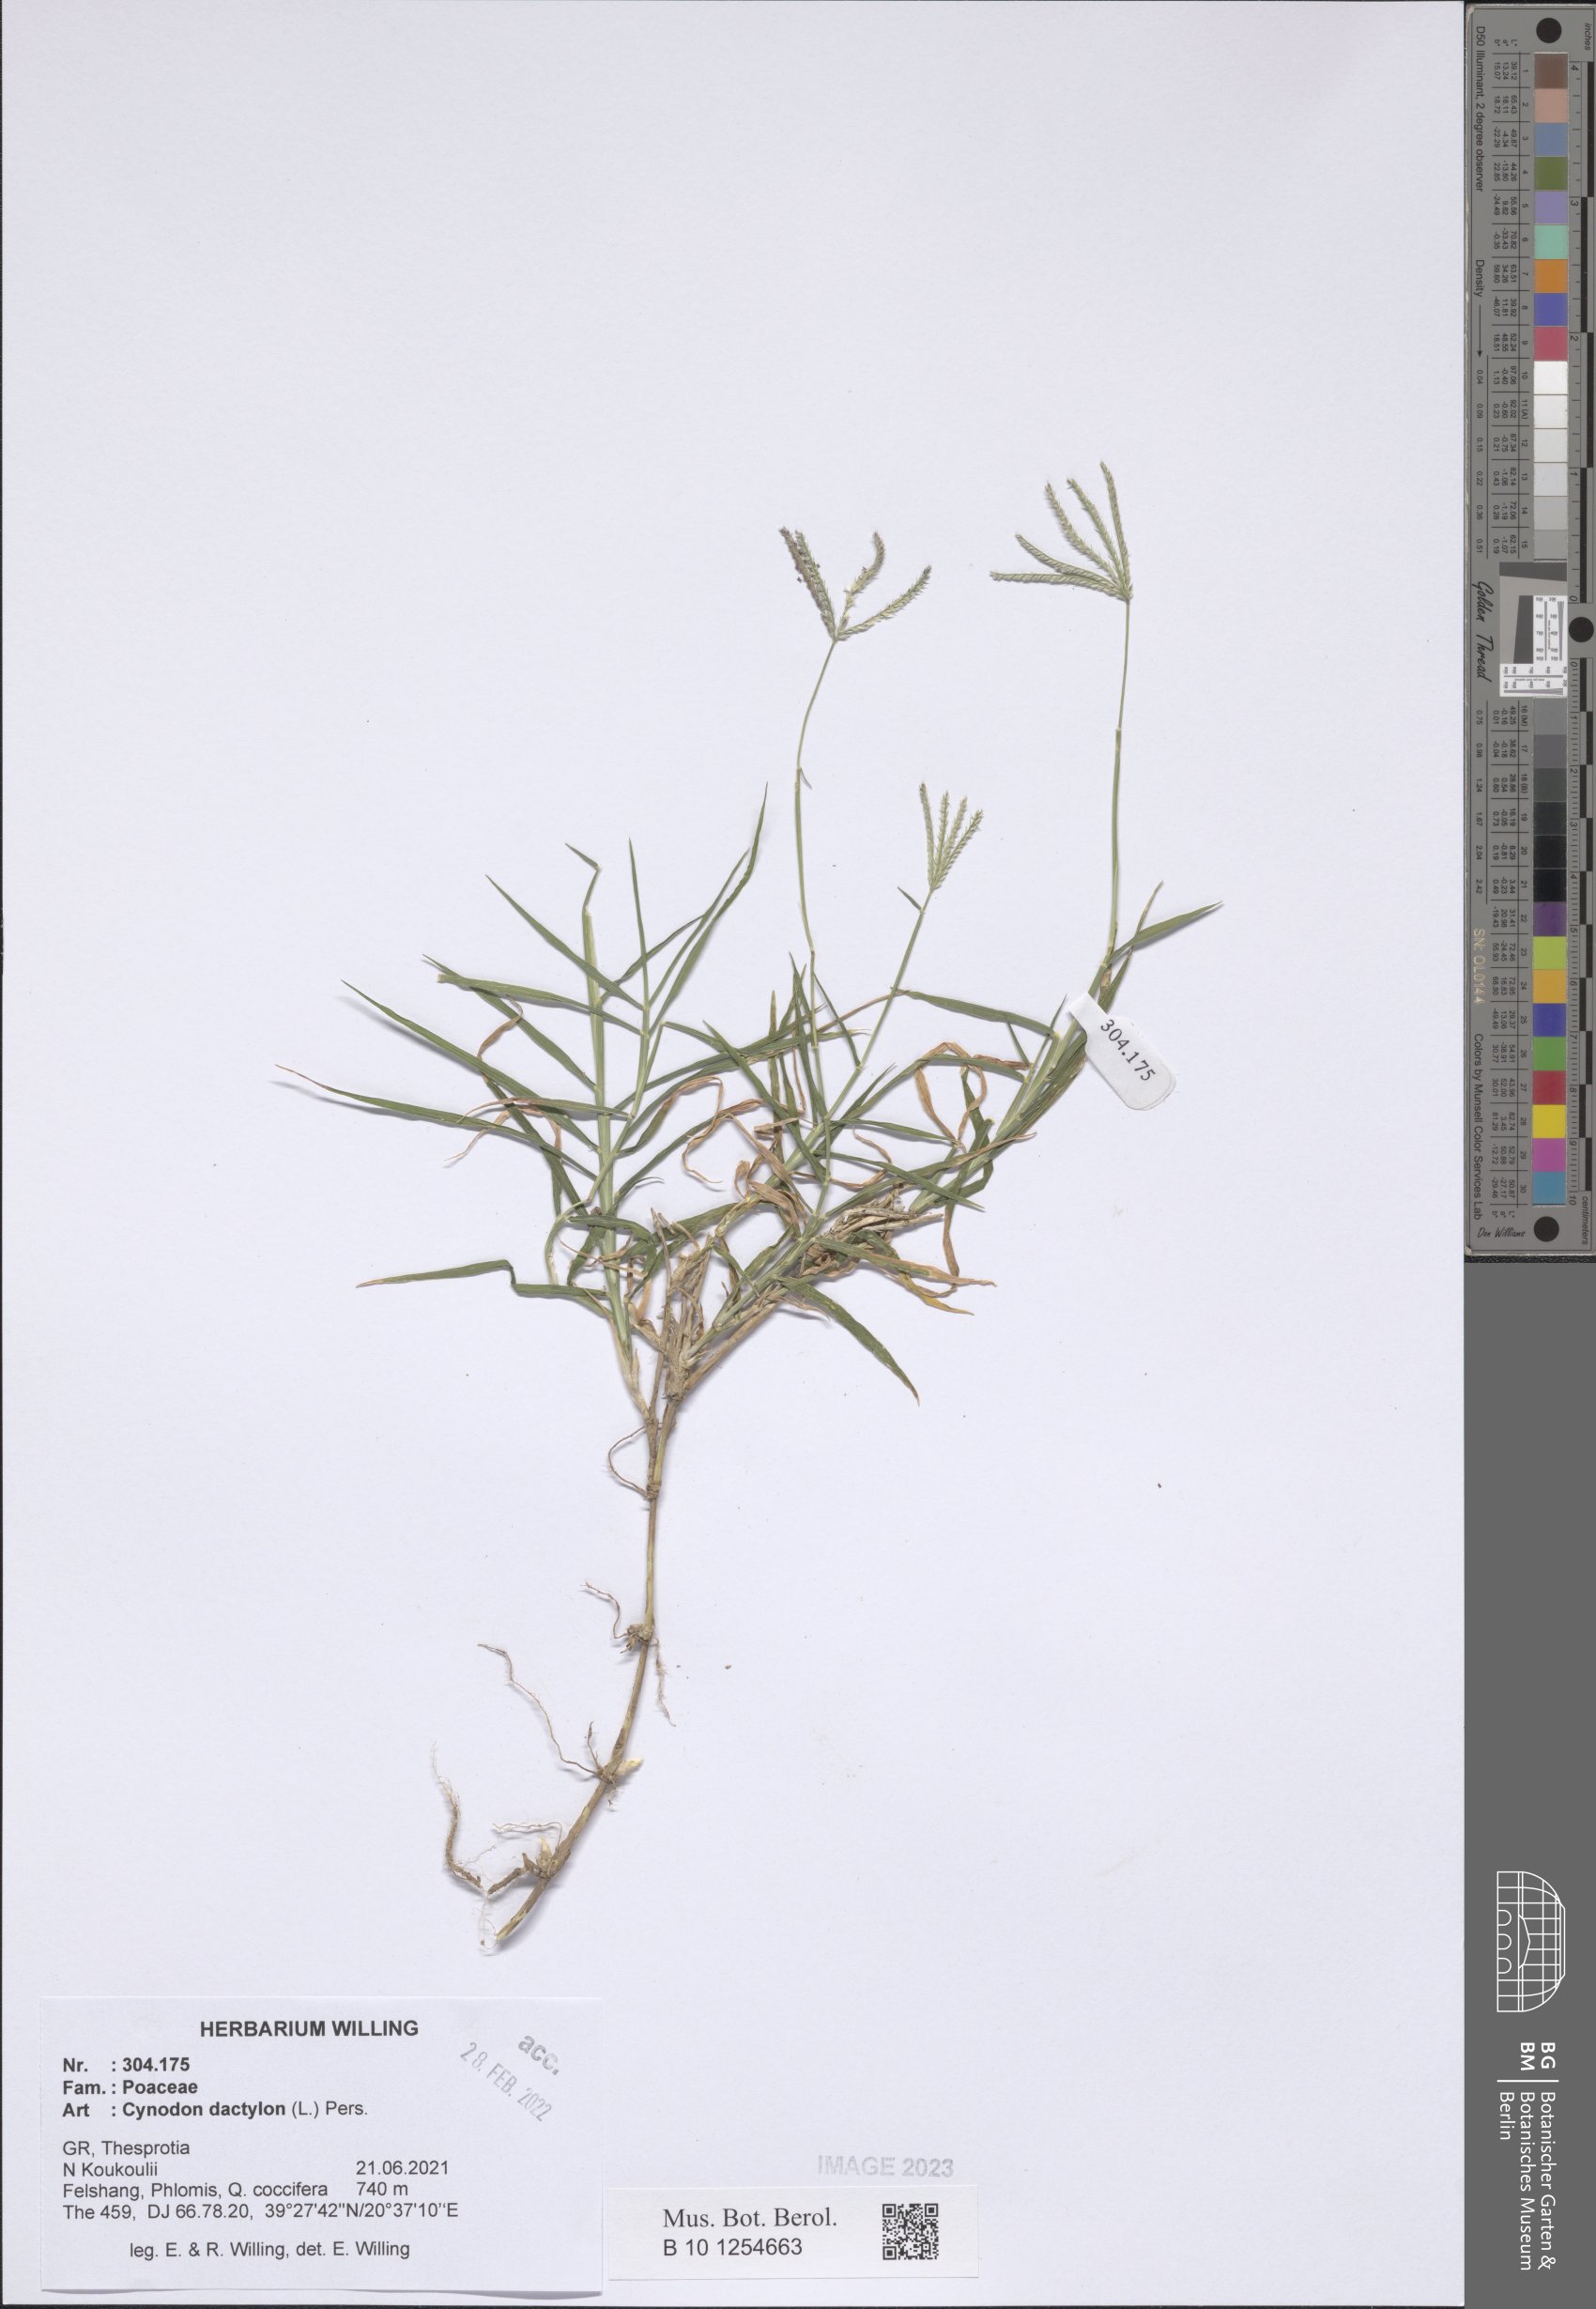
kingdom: Plantae
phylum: Tracheophyta
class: Liliopsida
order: Poales
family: Poaceae
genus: Cynodon
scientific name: Cynodon dactylon
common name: Bermuda grass
